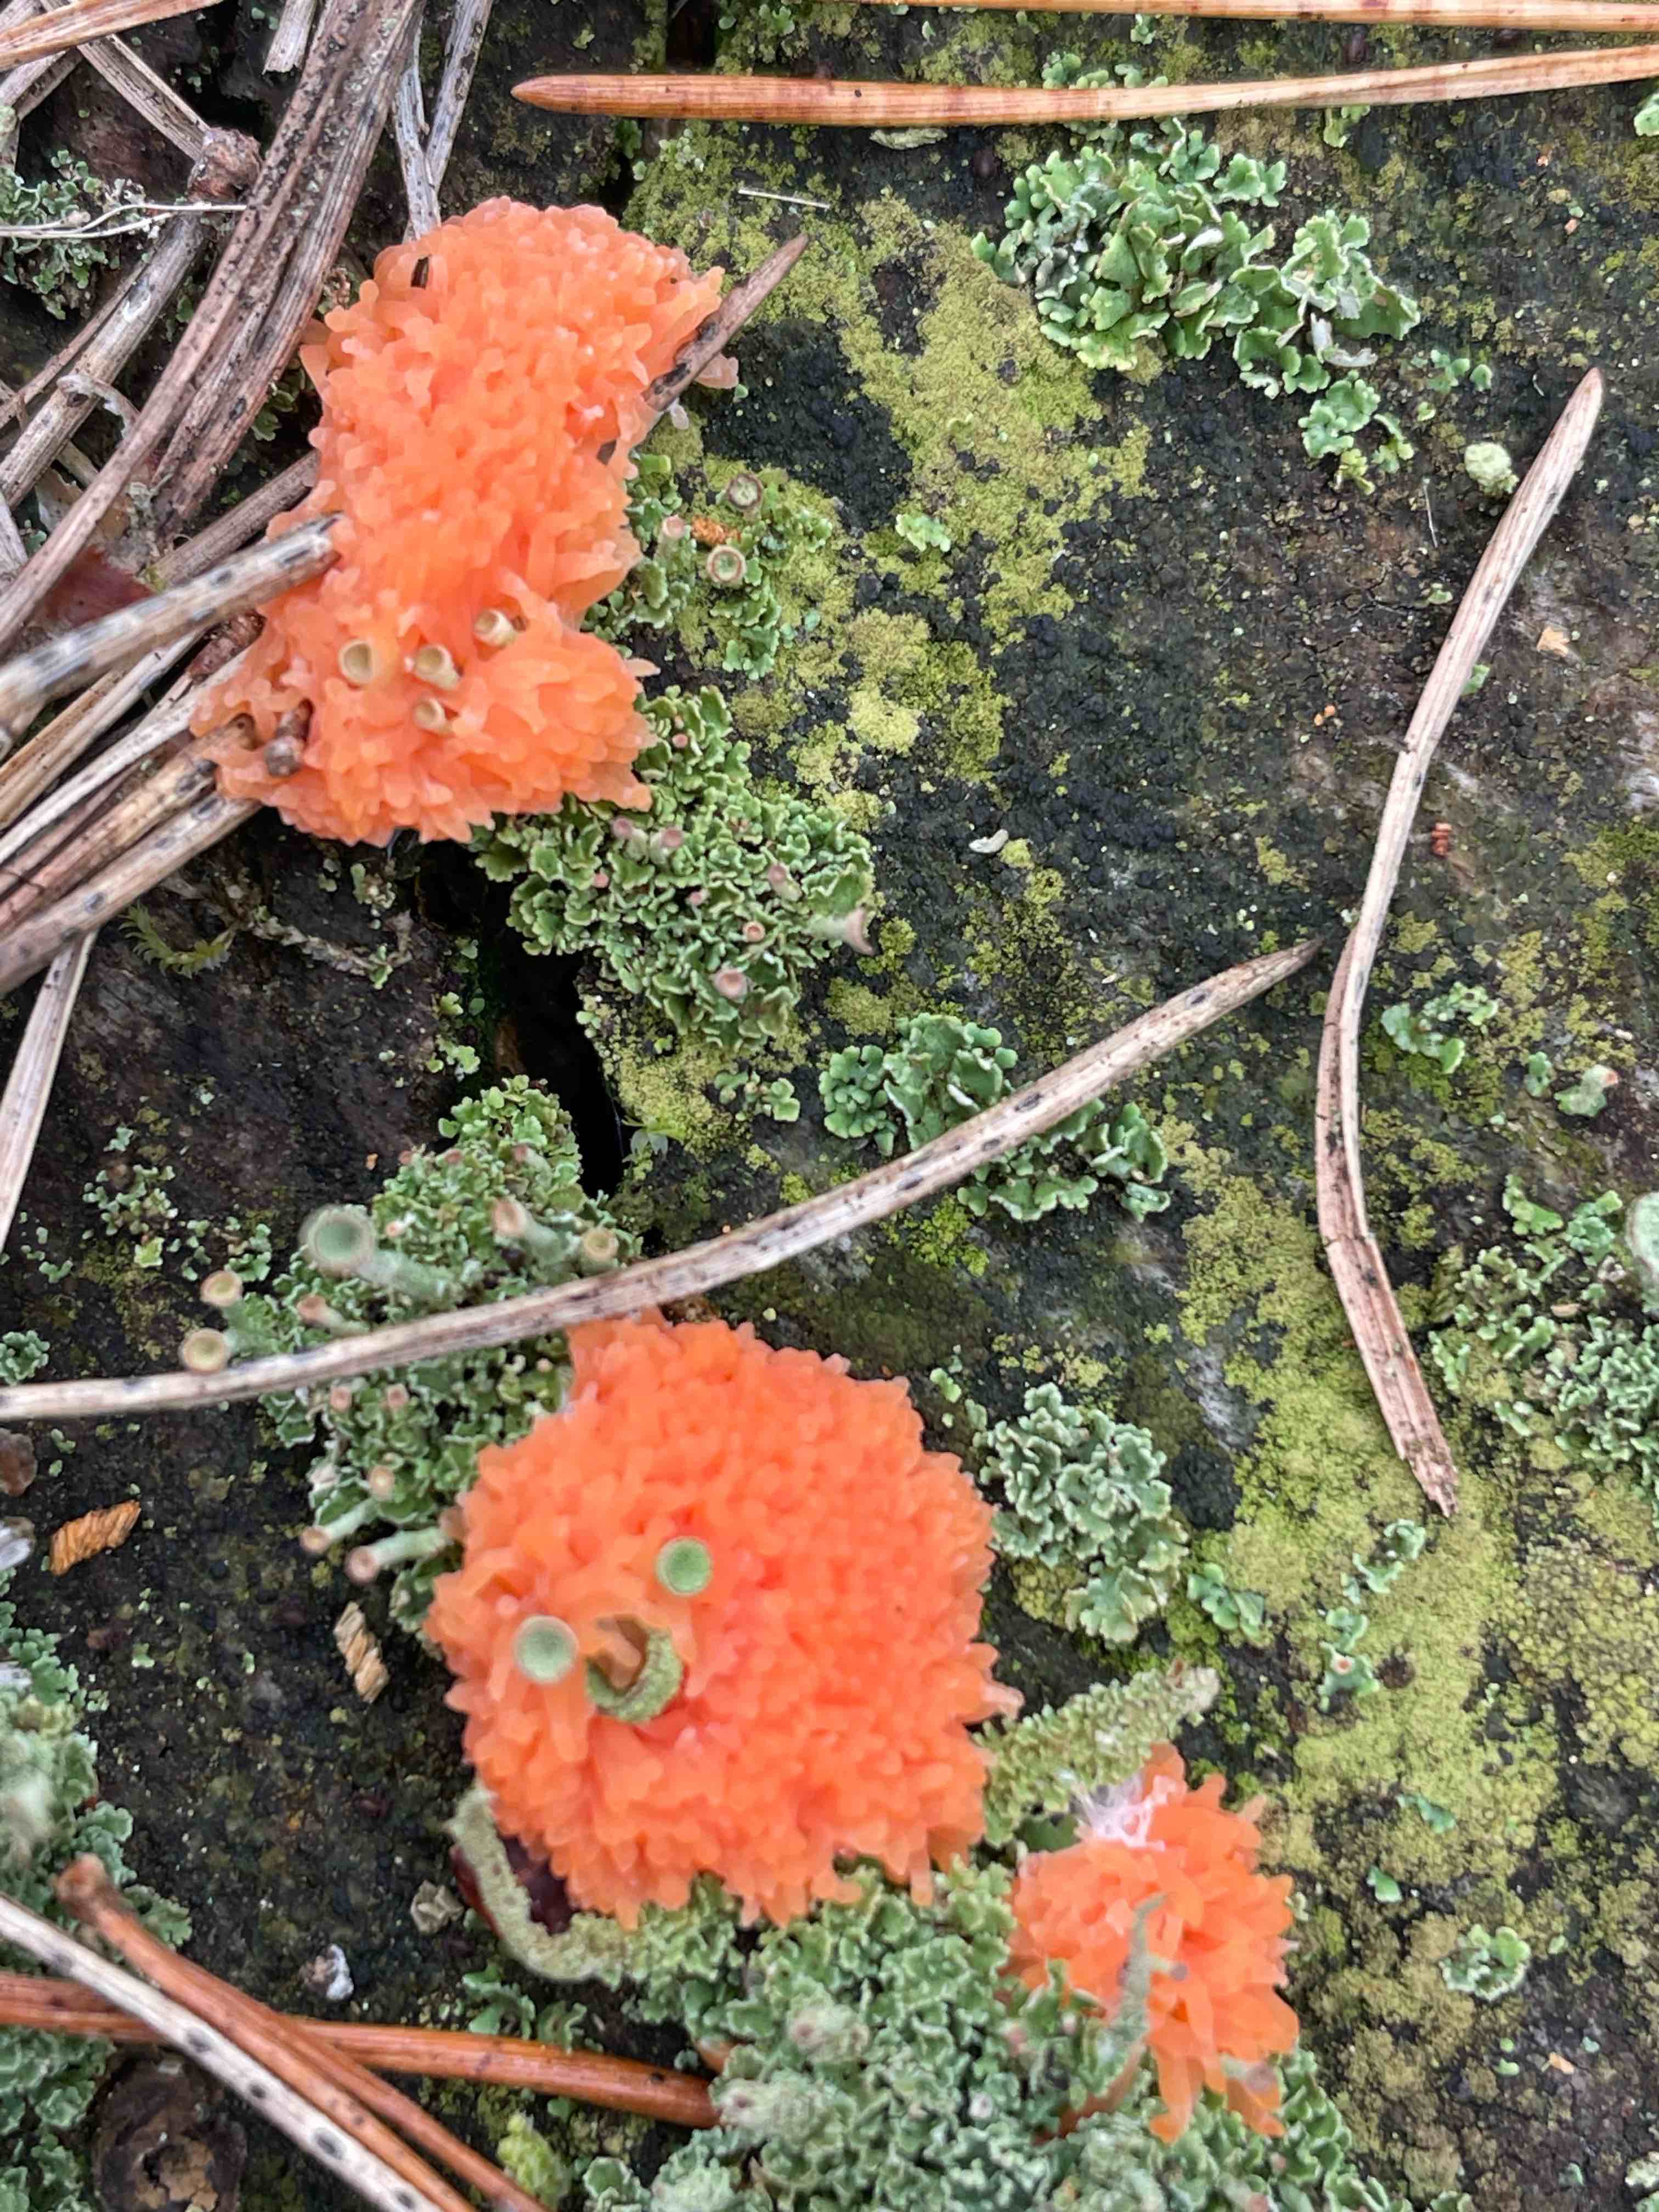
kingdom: Protozoa
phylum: Mycetozoa
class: Myxomycetes
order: Cribrariales
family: Tubiferaceae
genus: Tubifera
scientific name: Tubifera ferruginosa
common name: kanel-støvrør
